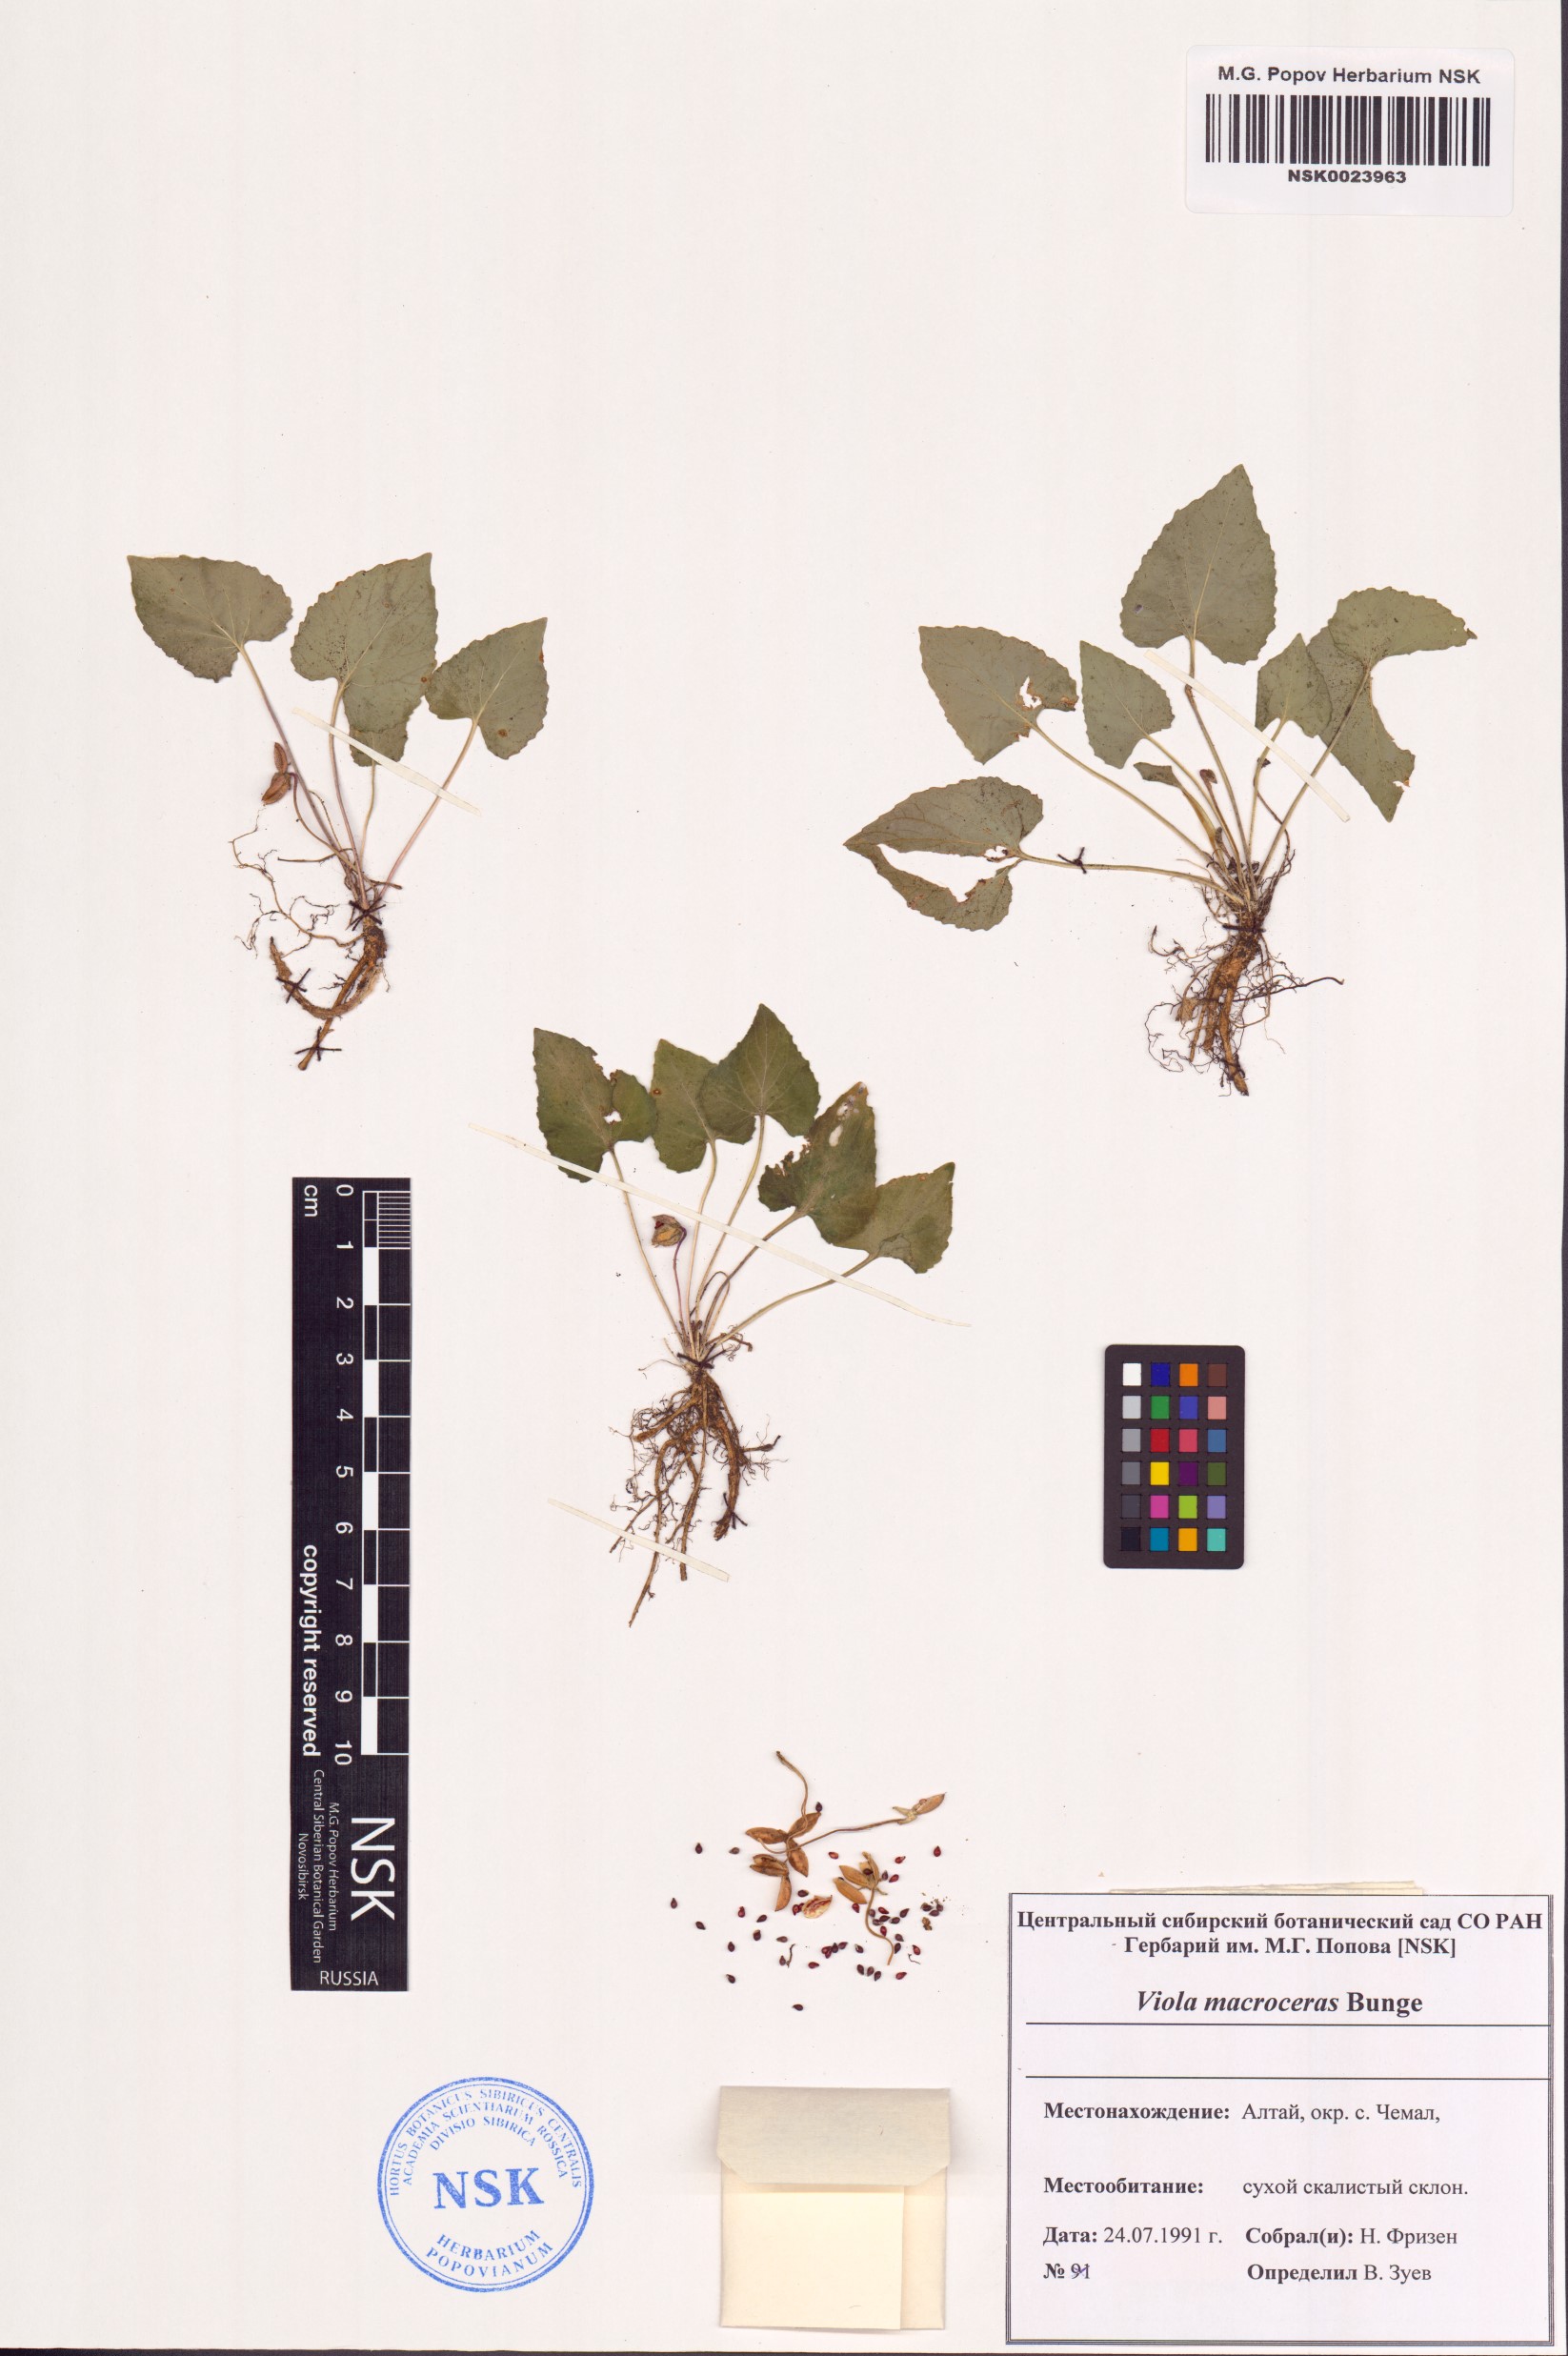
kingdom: Plantae
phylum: Tracheophyta
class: Magnoliopsida
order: Malpighiales
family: Violaceae
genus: Viola
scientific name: Viola macroceras
